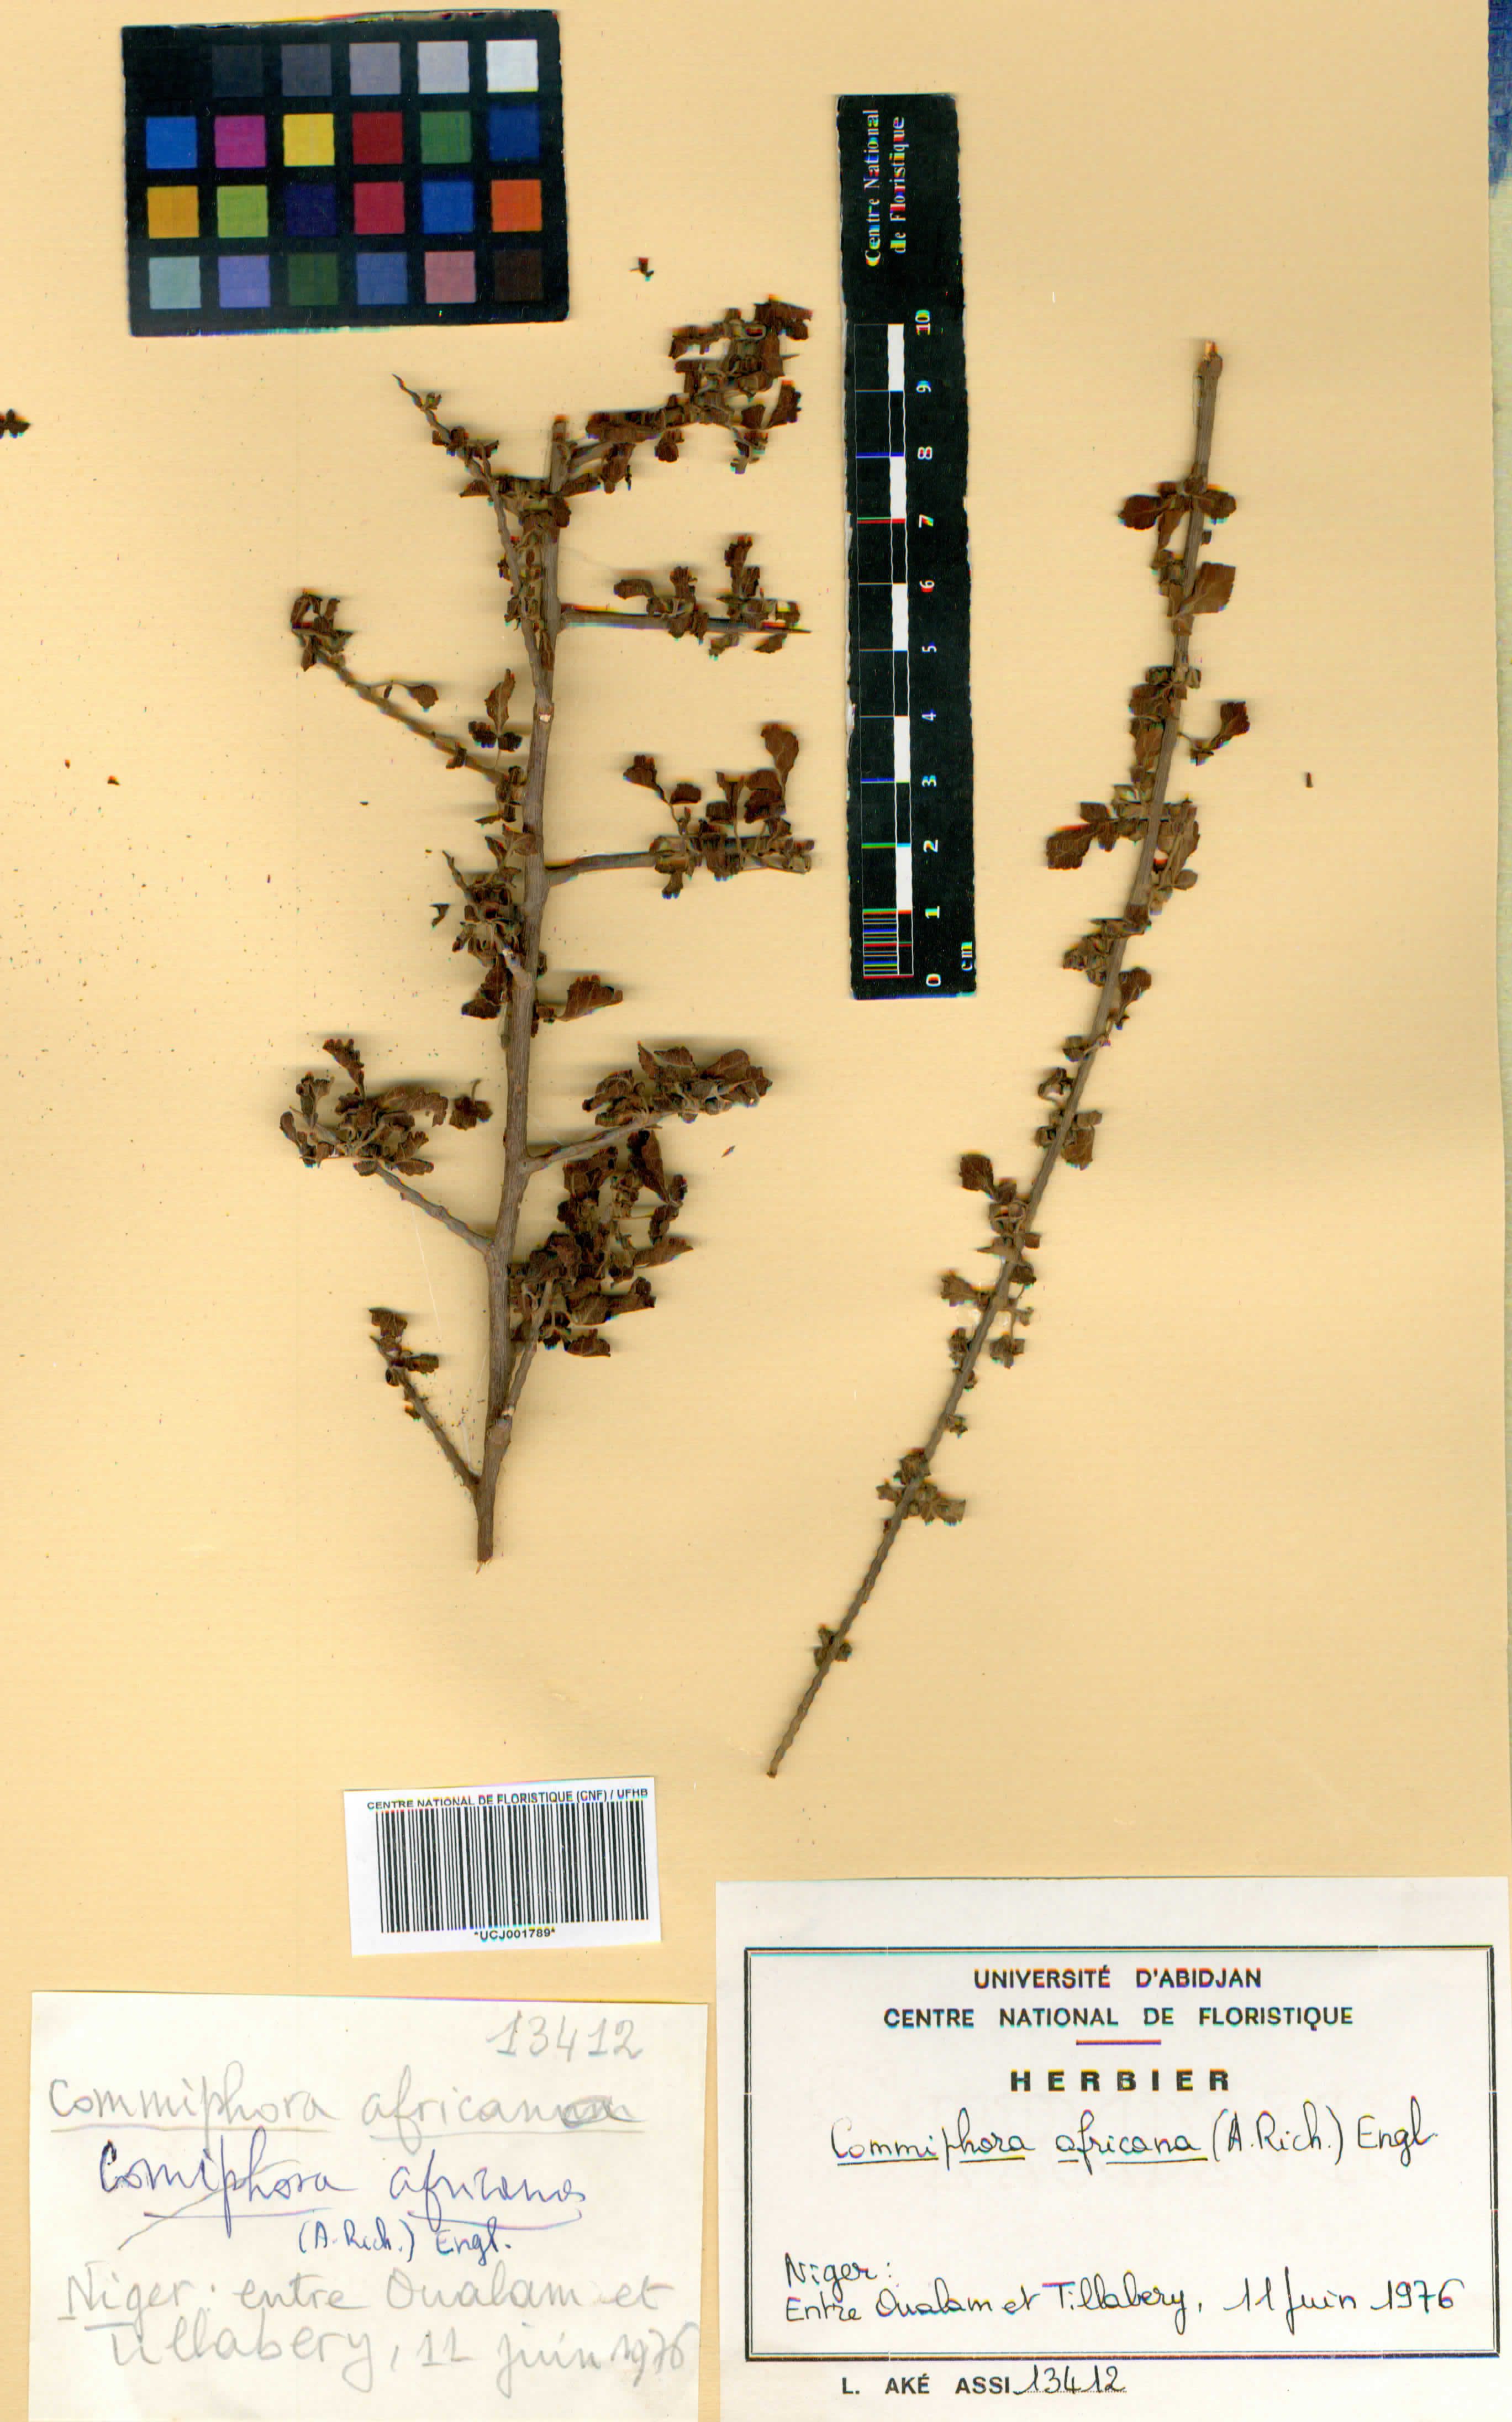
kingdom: Plantae
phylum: Tracheophyta
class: Magnoliopsida
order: Sapindales
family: Burseraceae
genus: Commiphora
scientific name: Commiphora africana
